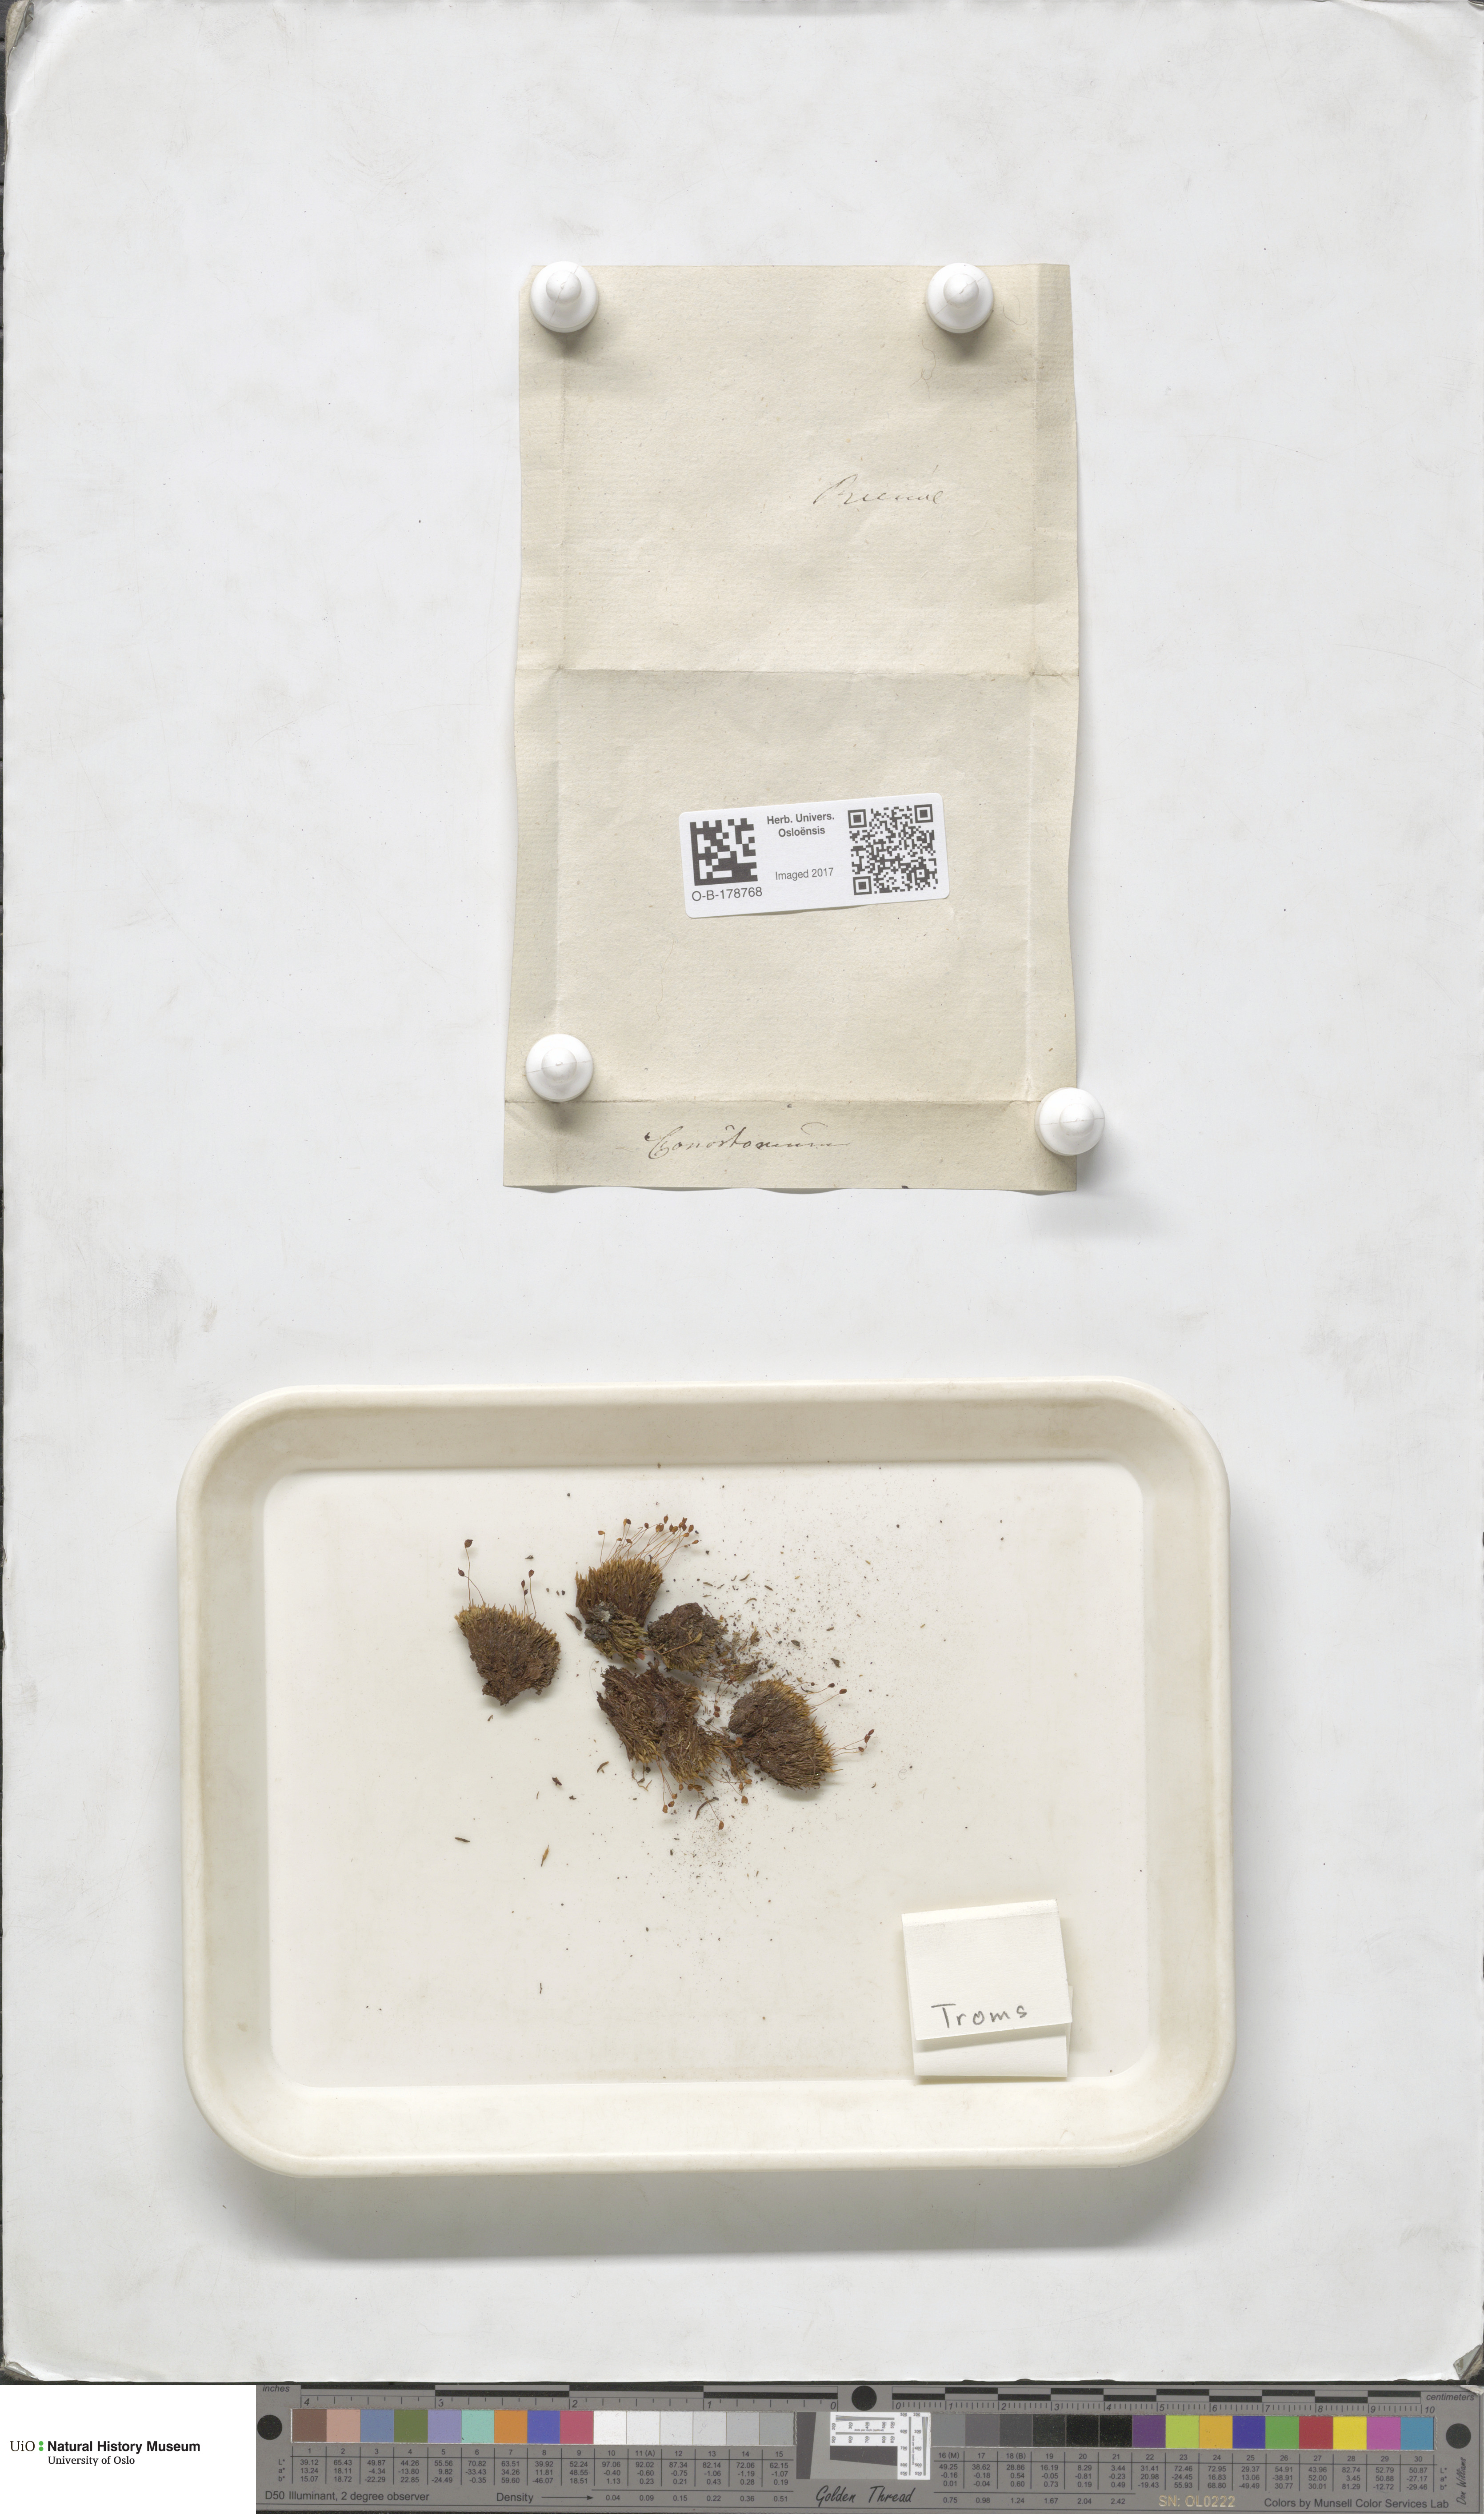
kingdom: Plantae
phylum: Bryophyta
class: Bryopsida
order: Bartramiales
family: Bartramiaceae
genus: Conostomum
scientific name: Conostomum tetragonum
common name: Helmet moss
